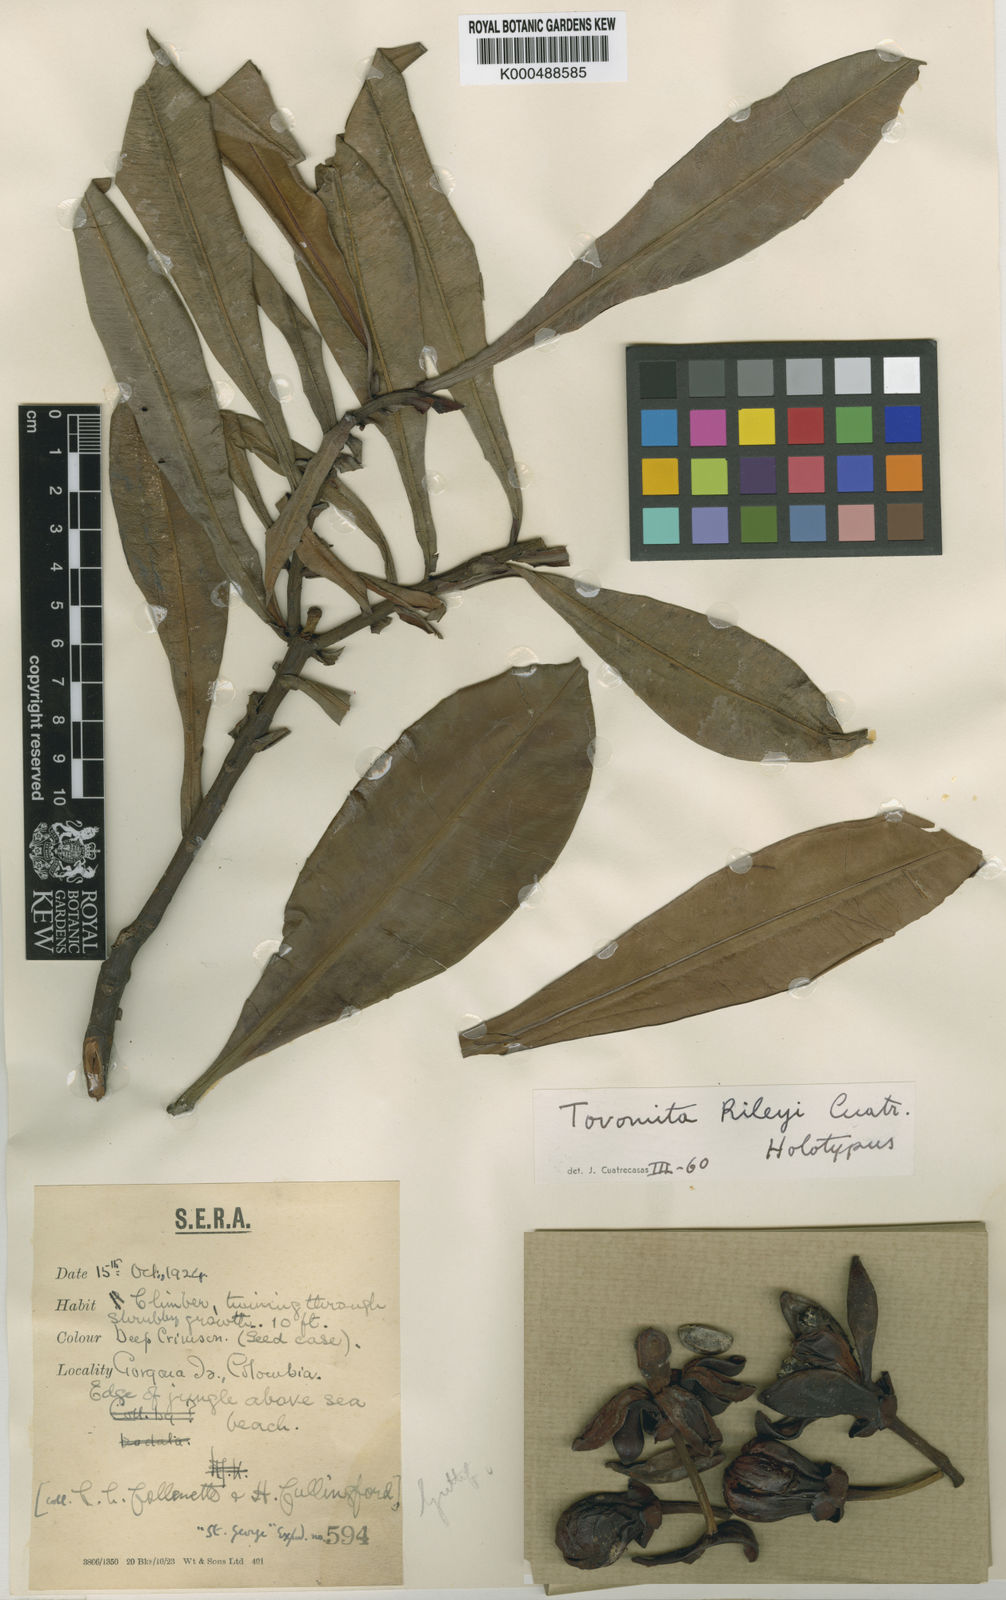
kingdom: Plantae
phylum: Tracheophyta
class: Magnoliopsida
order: Malpighiales
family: Clusiaceae
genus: Arawakia
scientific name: Arawakia rileyi
